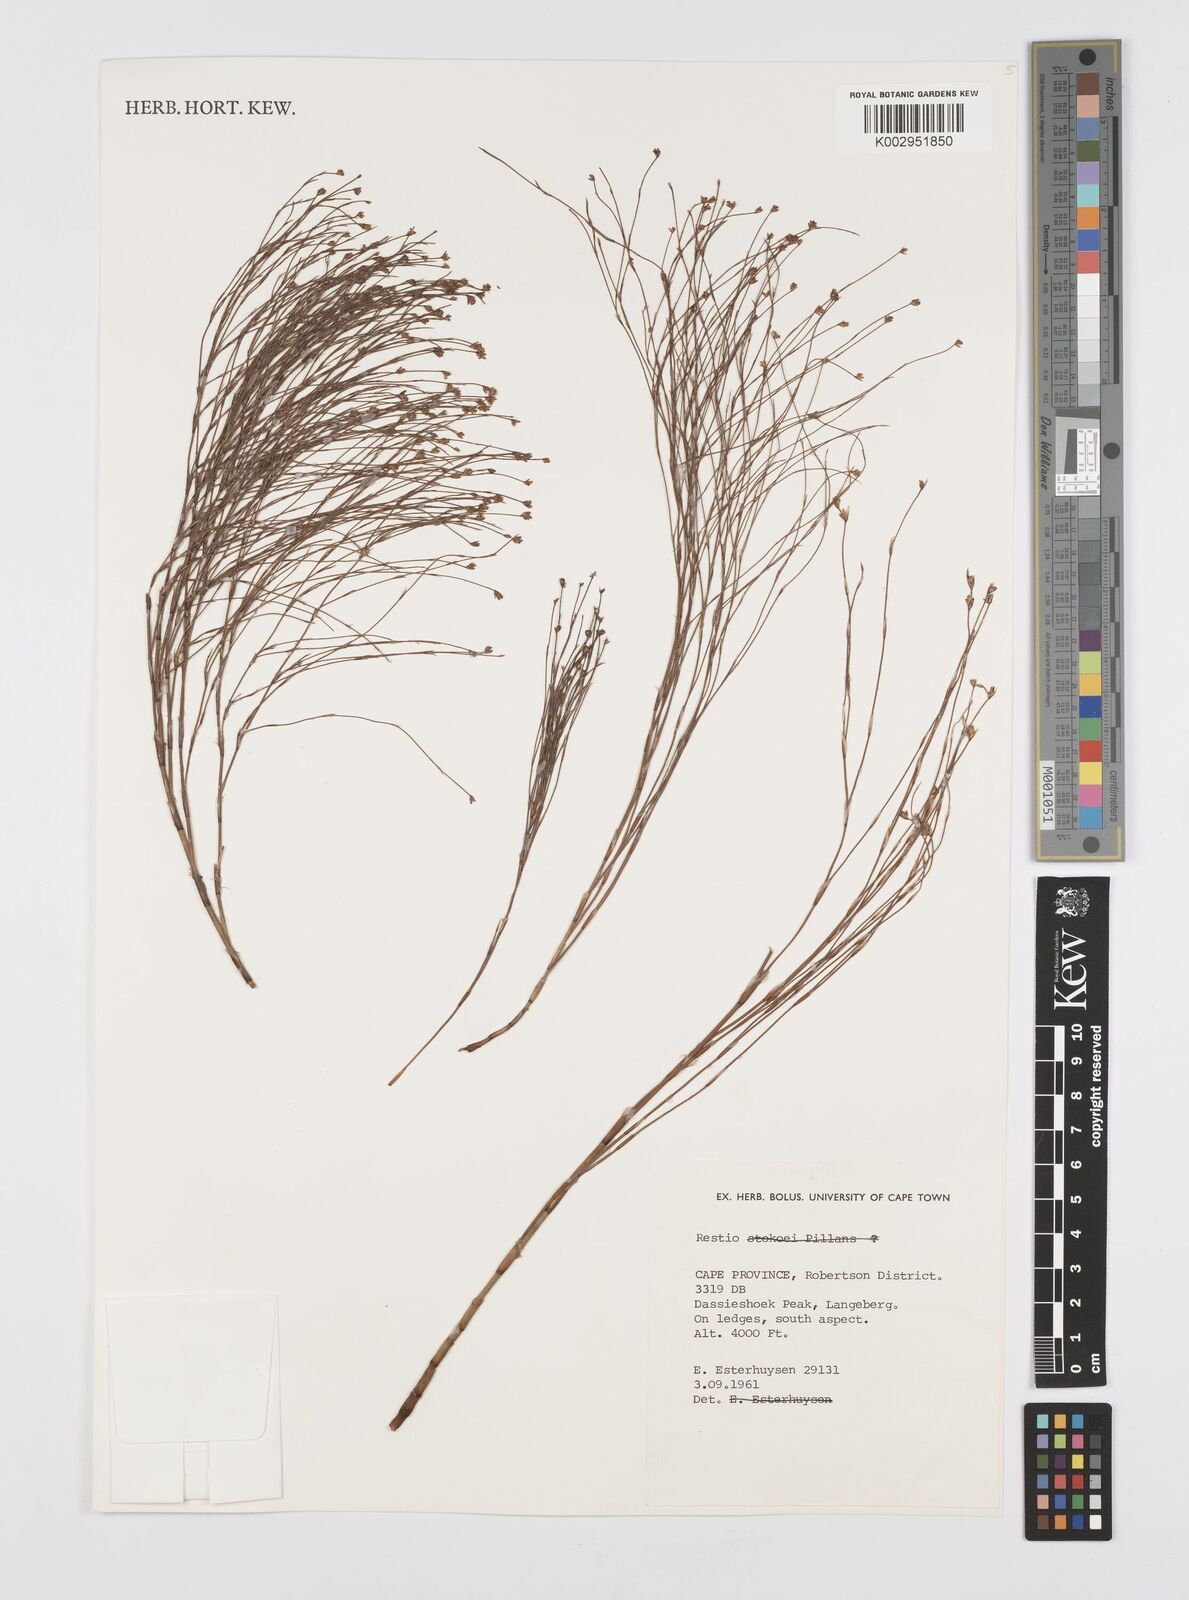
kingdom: Plantae
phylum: Tracheophyta
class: Liliopsida
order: Poales
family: Restionaceae
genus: Restio
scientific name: Restio
